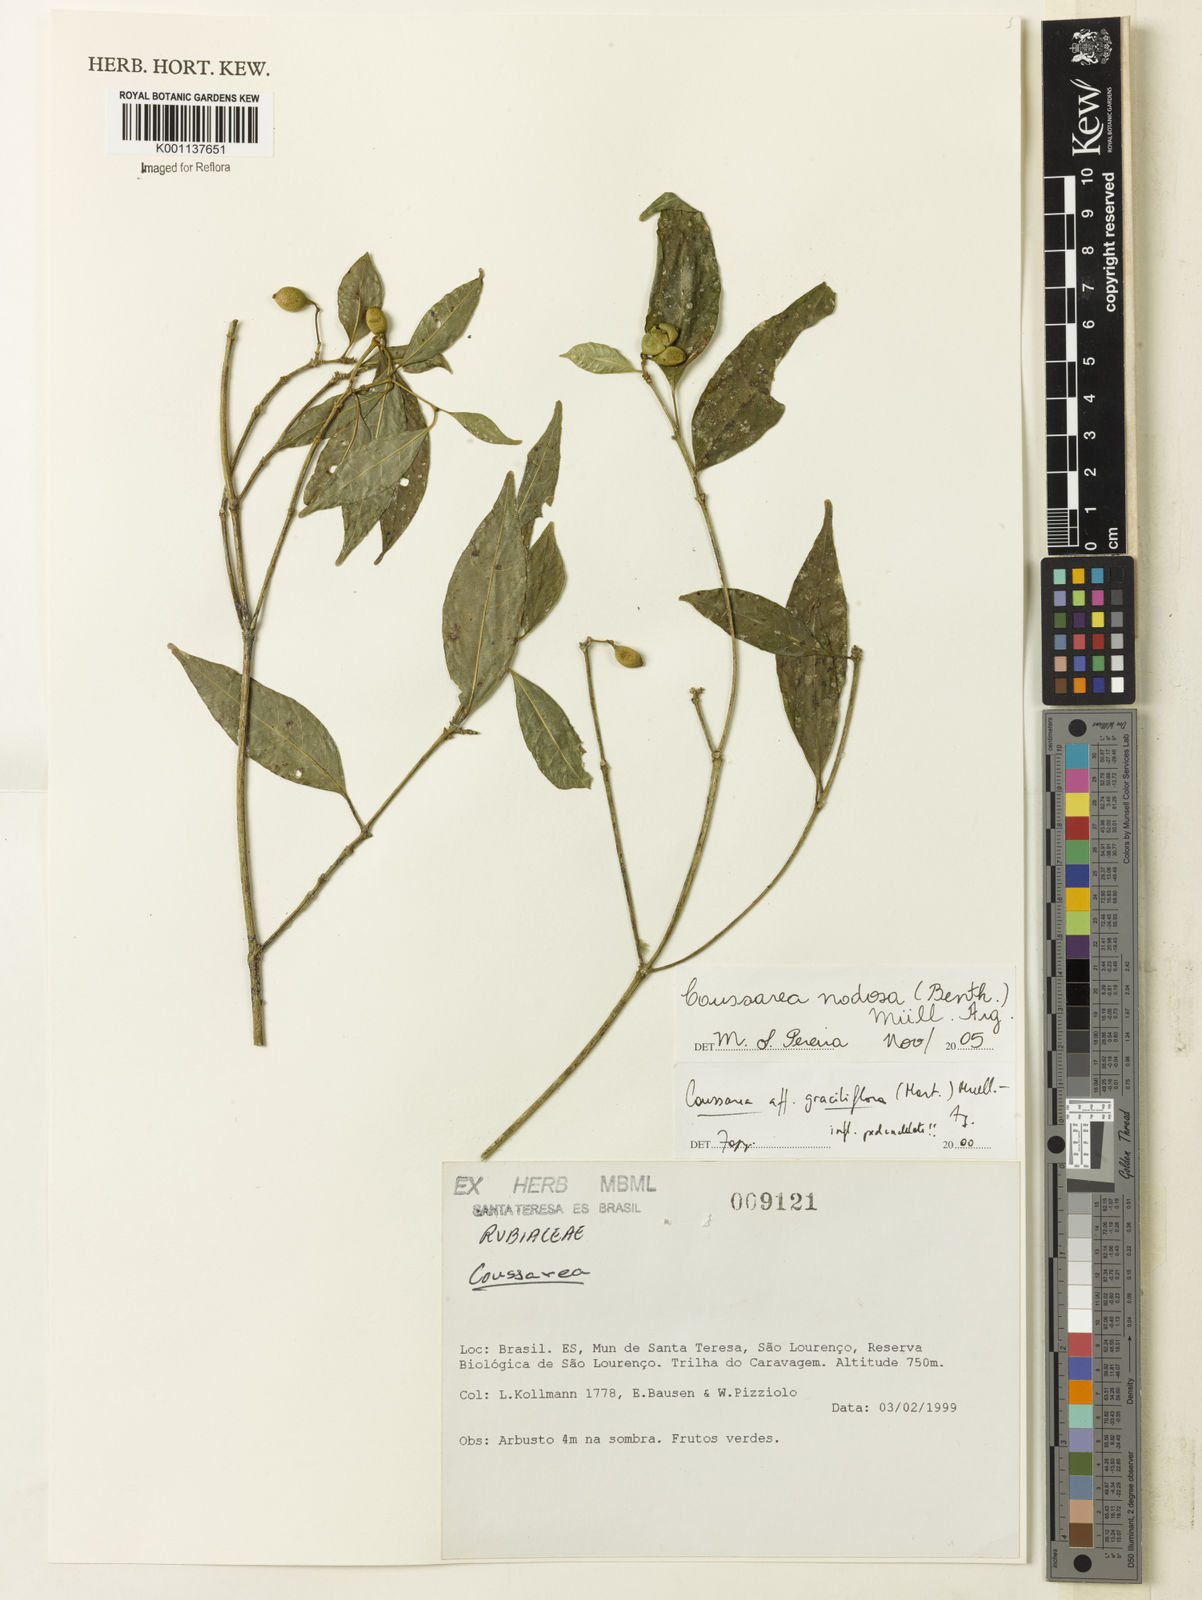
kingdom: Plantae
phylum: Tracheophyta
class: Magnoliopsida
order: Gentianales
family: Rubiaceae
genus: Coussarea
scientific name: Coussarea
